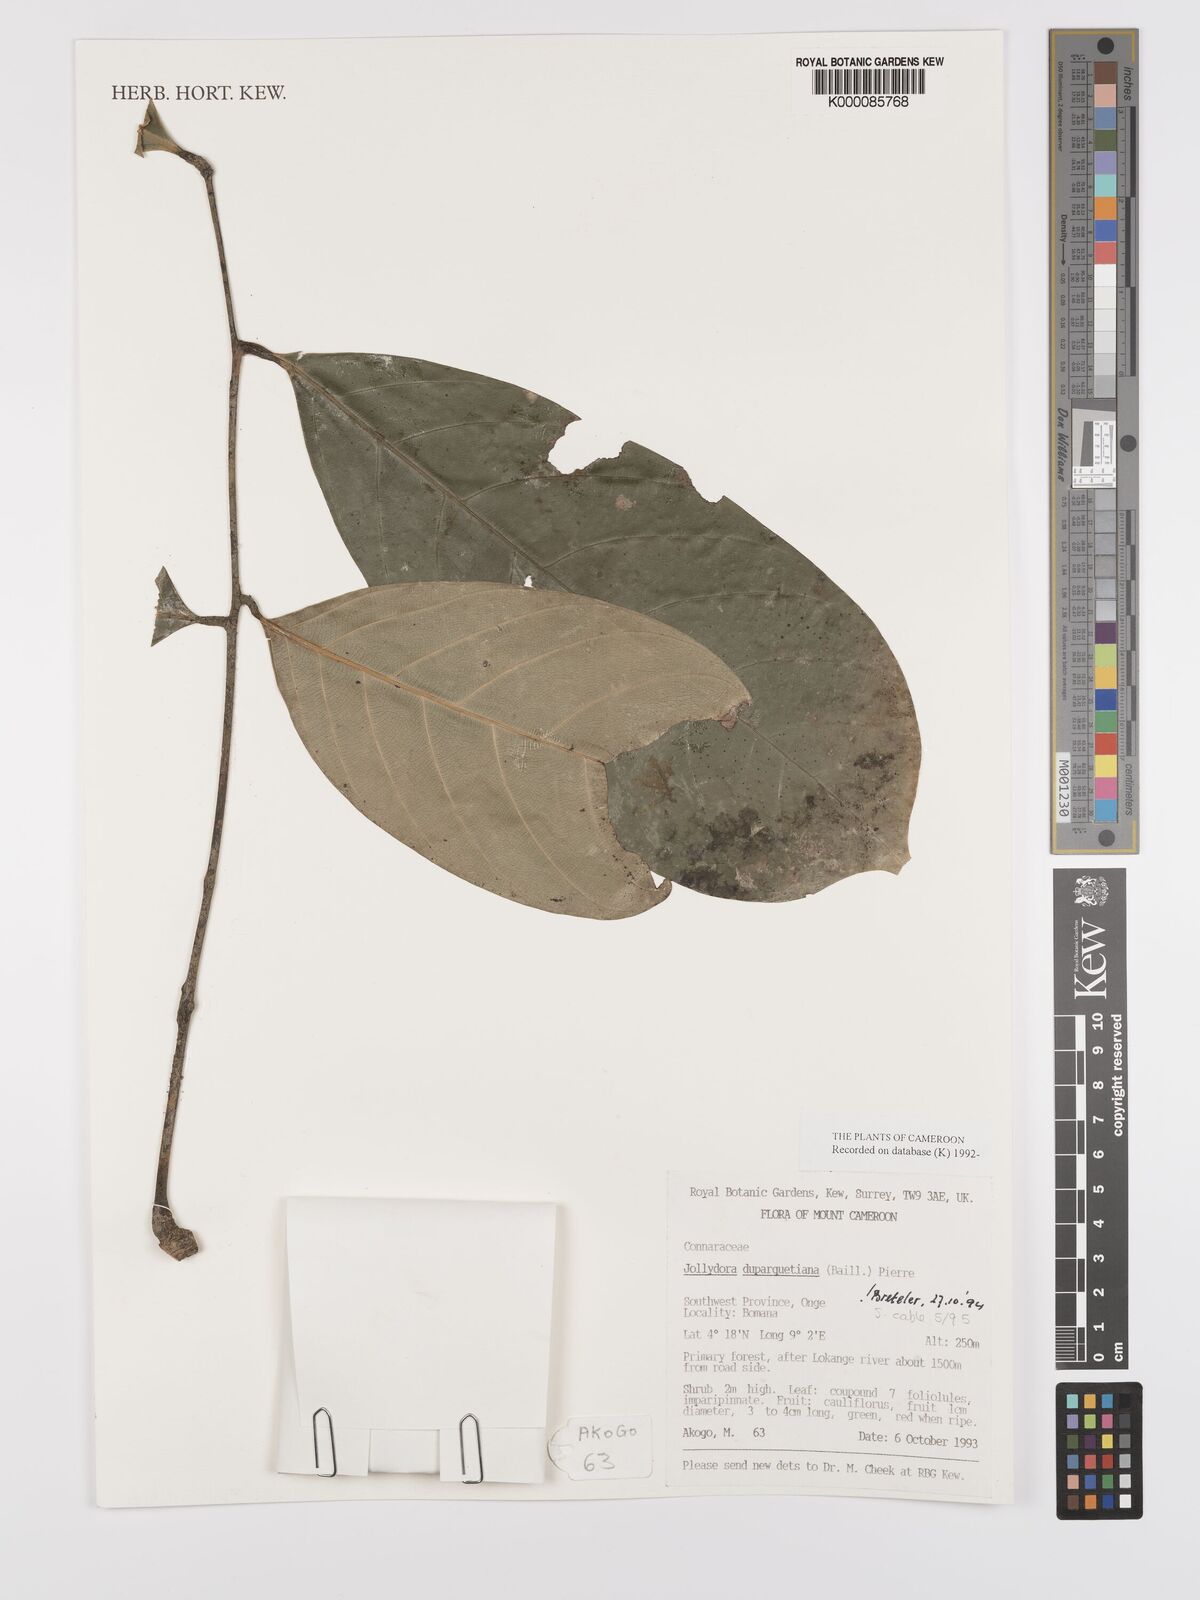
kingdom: Plantae
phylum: Tracheophyta
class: Magnoliopsida
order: Oxalidales
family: Connaraceae
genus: Jollydora
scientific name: Jollydora duparquetiana
